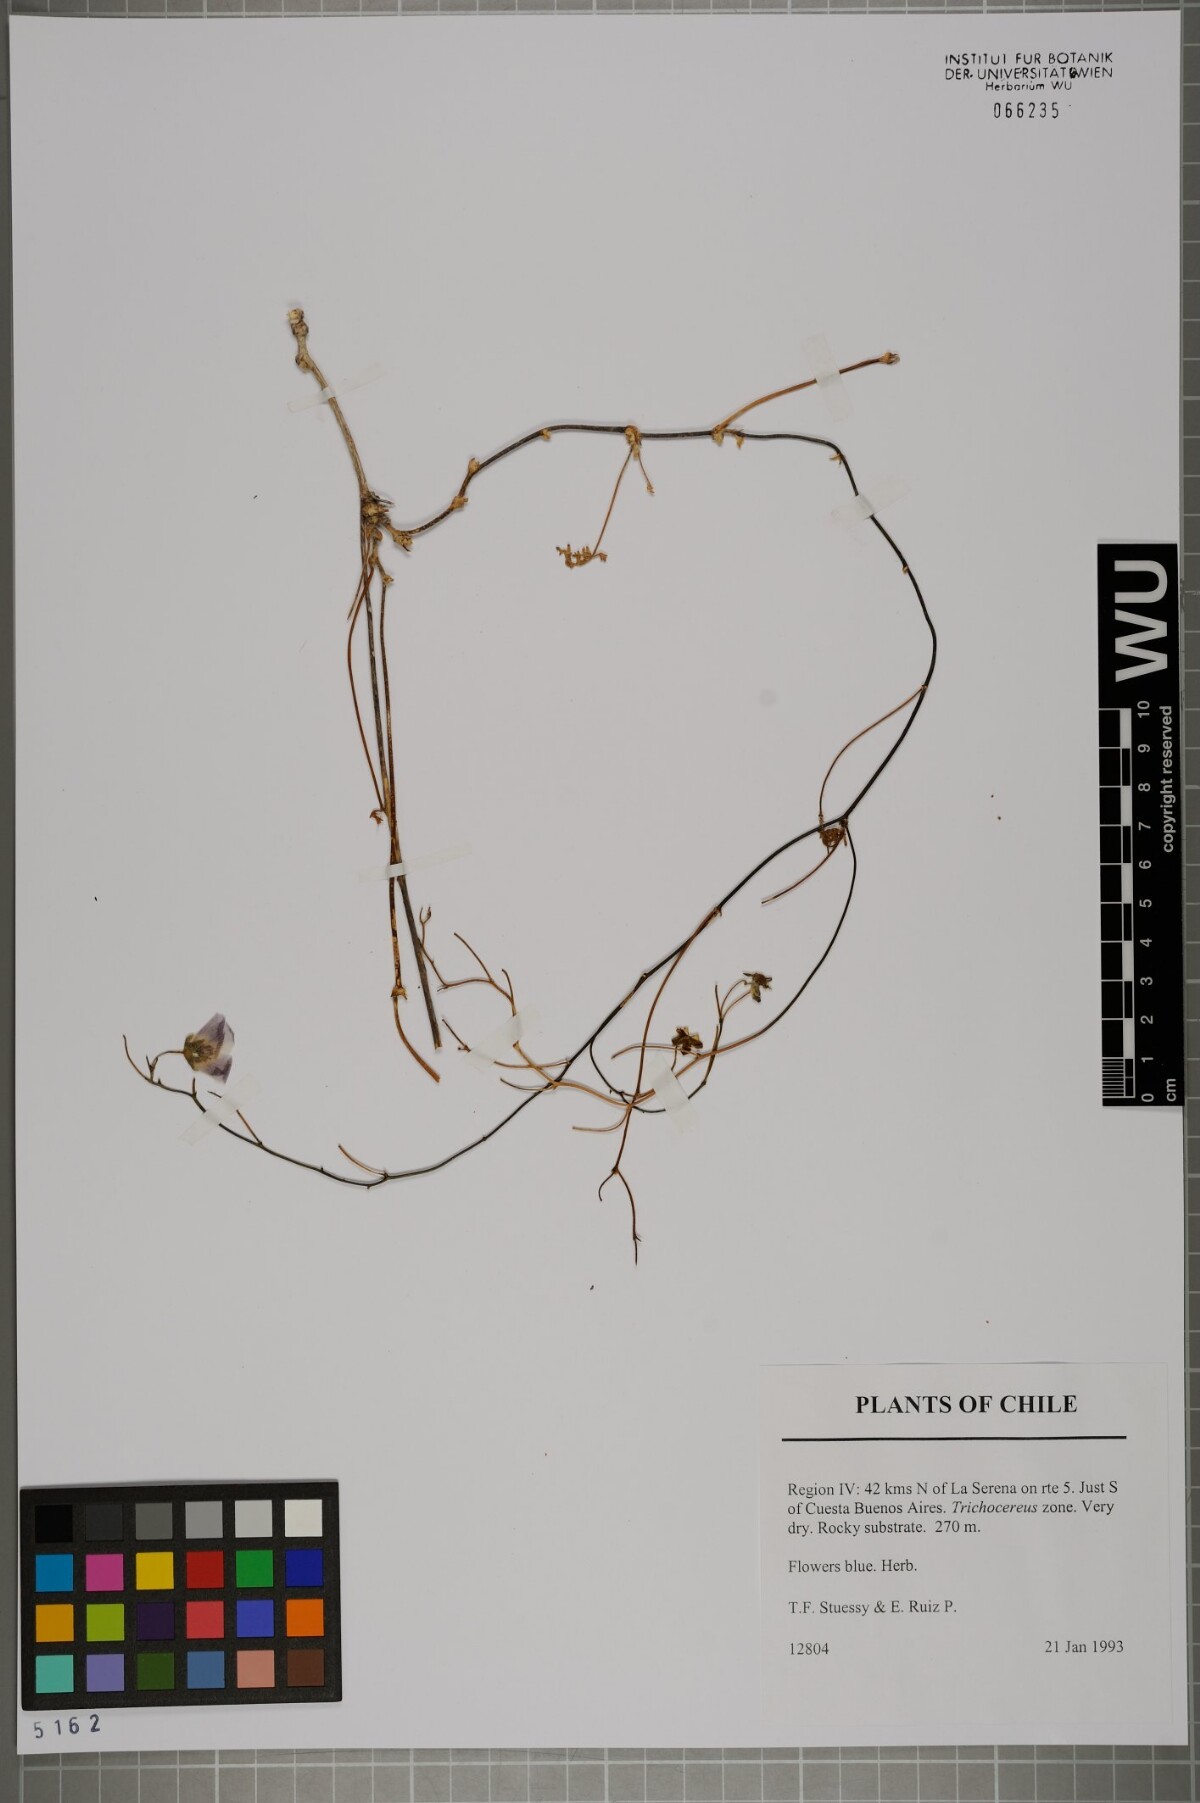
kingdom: Plantae
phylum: Tracheophyta
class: Magnoliopsida
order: Malvales
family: Malvaceae
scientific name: Malvaceae
